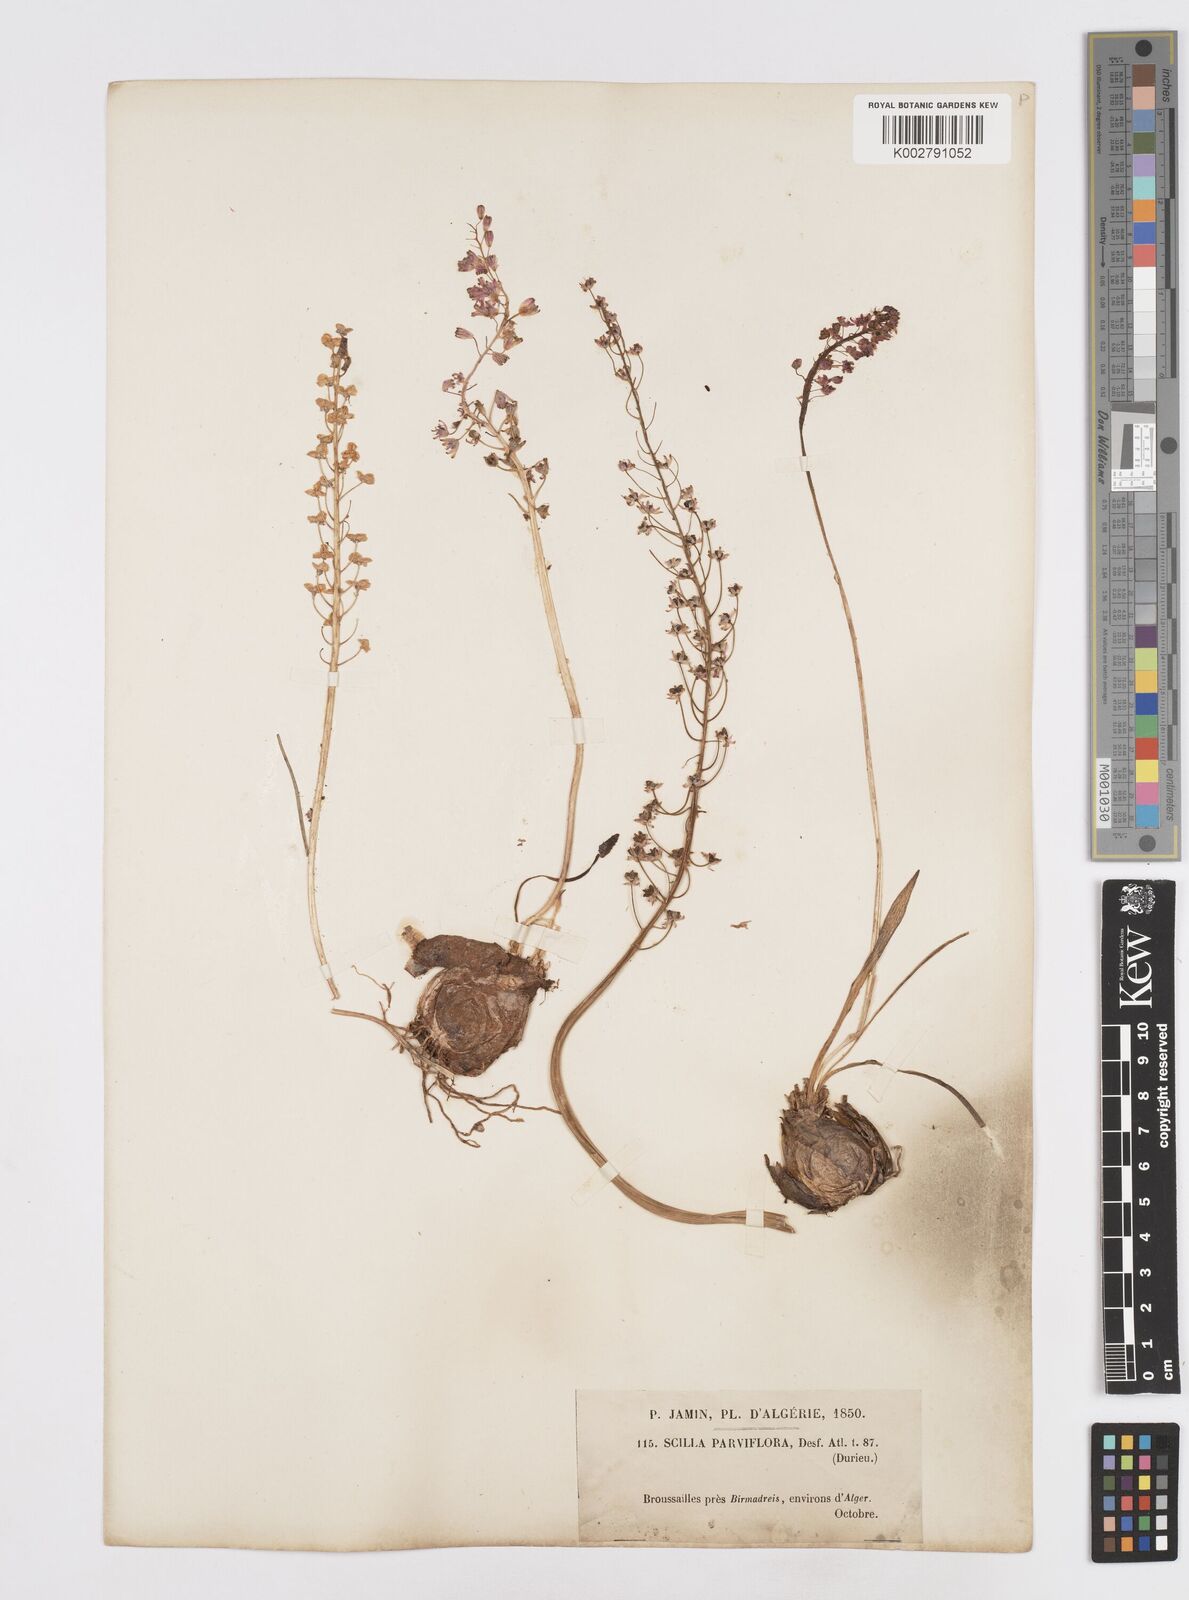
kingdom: Plantae
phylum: Tracheophyta
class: Liliopsida
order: Asparagales
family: Asparagaceae
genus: Barnardia
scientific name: Barnardia numidica
